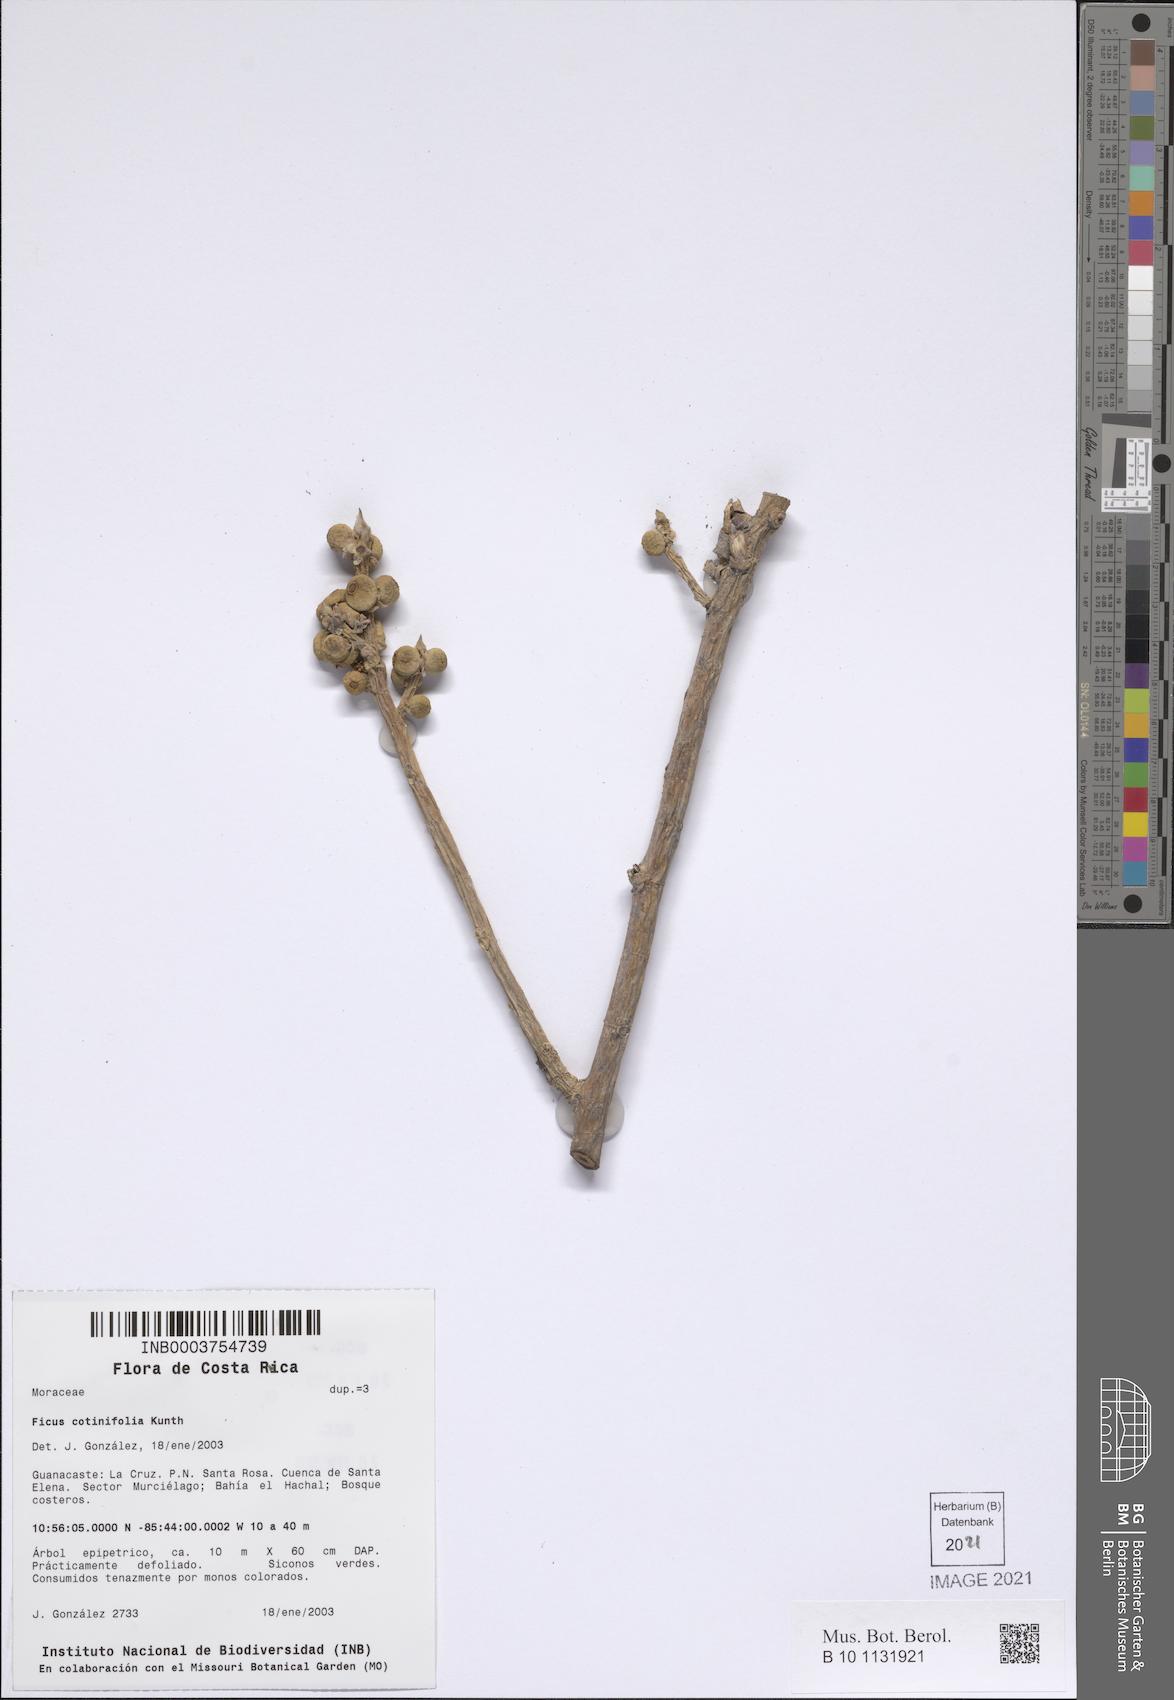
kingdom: Plantae
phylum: Tracheophyta
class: Magnoliopsida
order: Rosales
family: Moraceae
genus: Ficus
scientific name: Ficus cotinifolia
